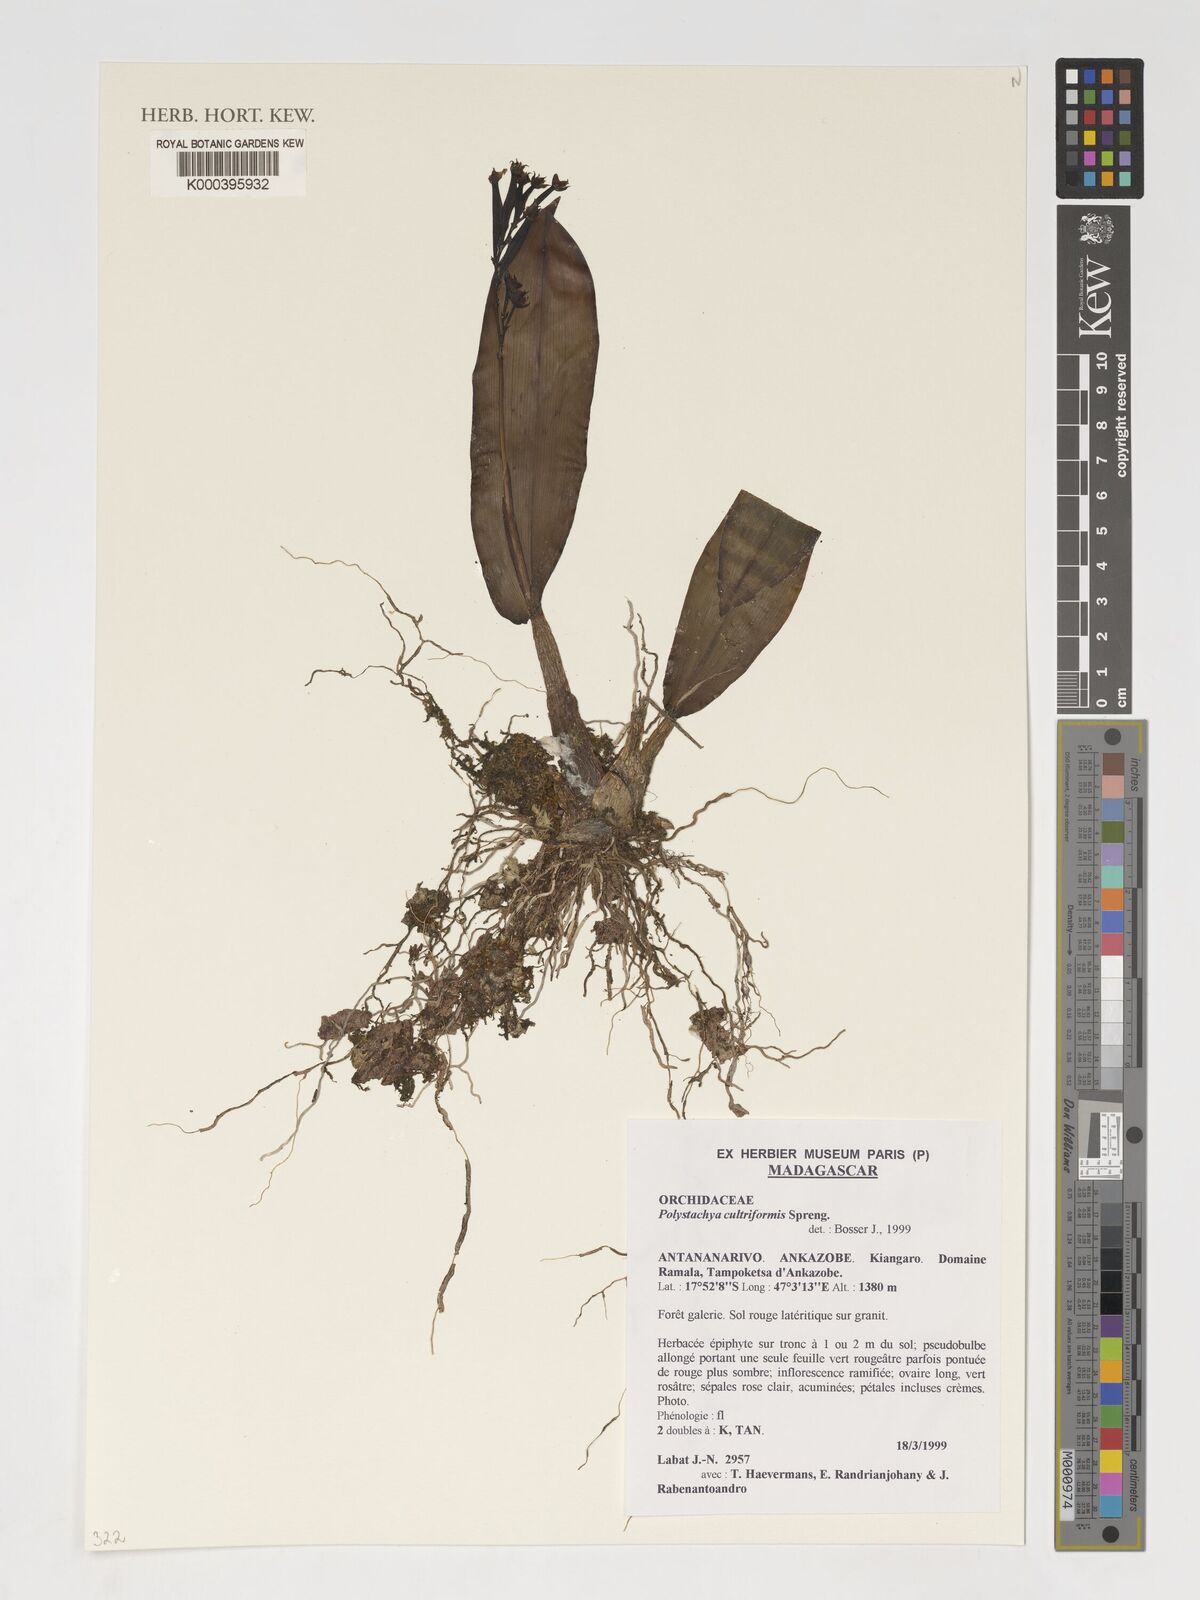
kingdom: Plantae
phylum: Tracheophyta
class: Liliopsida
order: Asparagales
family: Orchidaceae
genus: Polystachya
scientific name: Polystachya cultriformis
